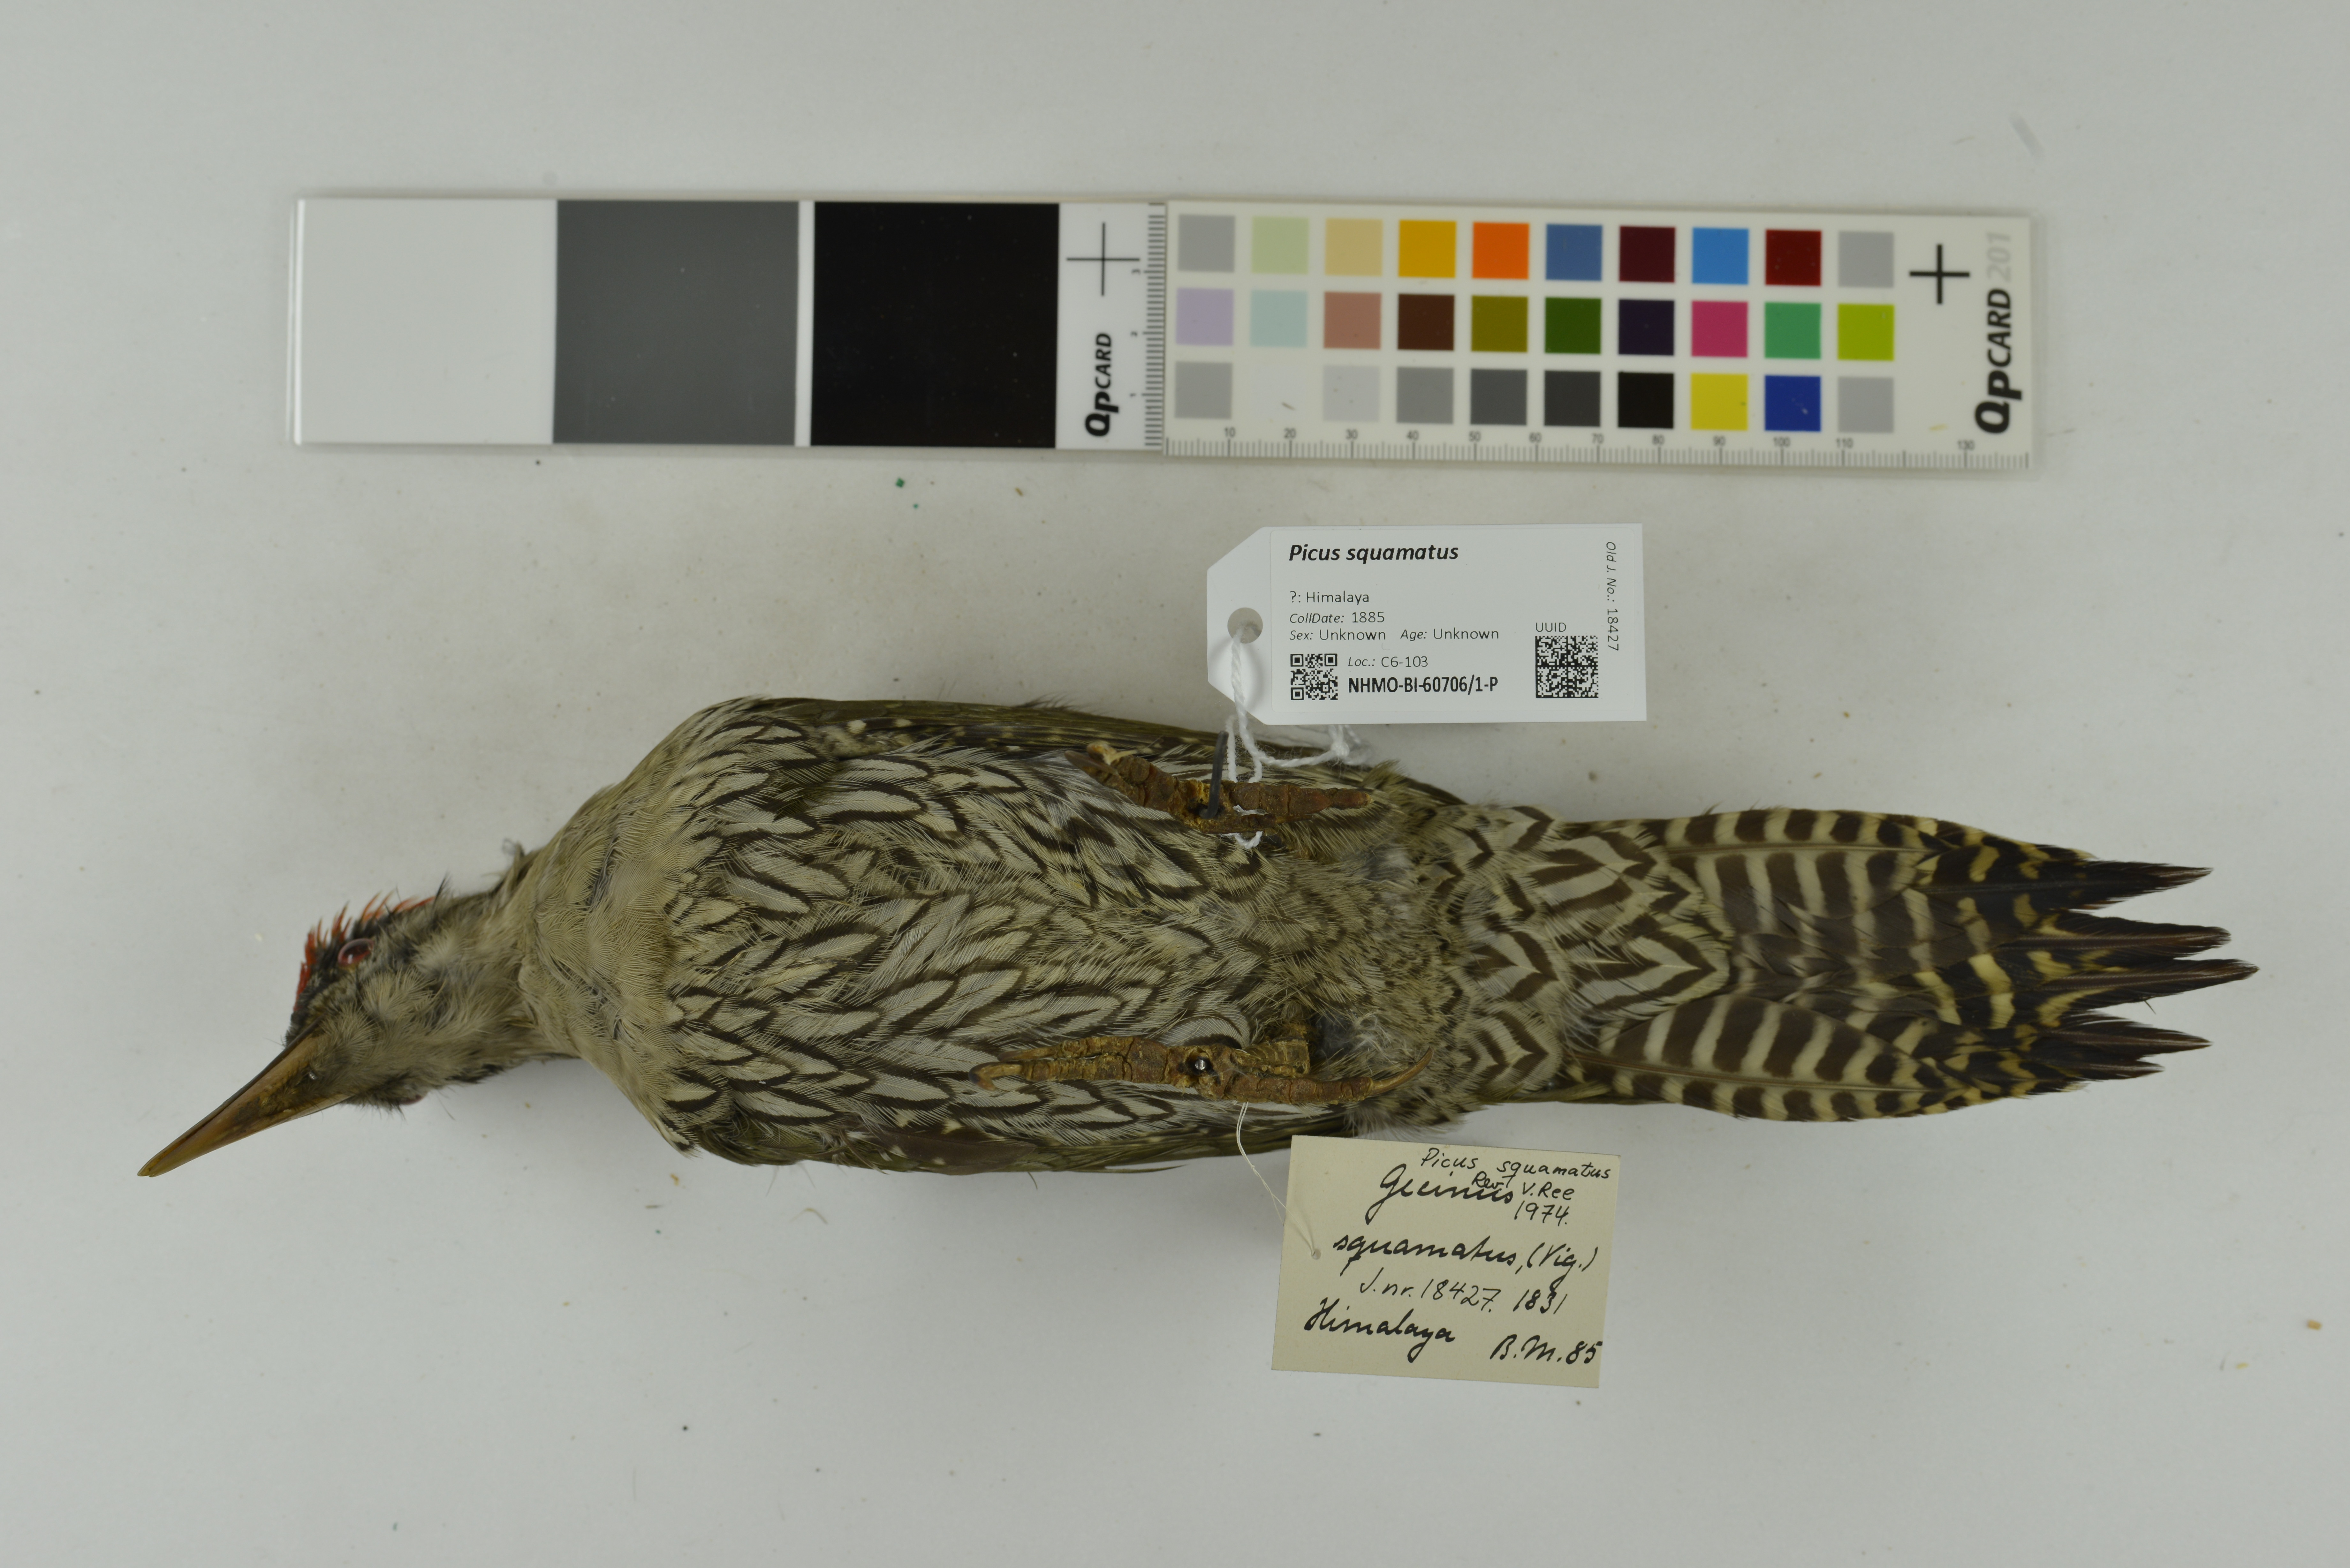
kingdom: Animalia
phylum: Chordata
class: Aves
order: Piciformes
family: Picidae
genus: Picus
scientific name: Picus squamatus
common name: Scaly-bellied woodpecker
